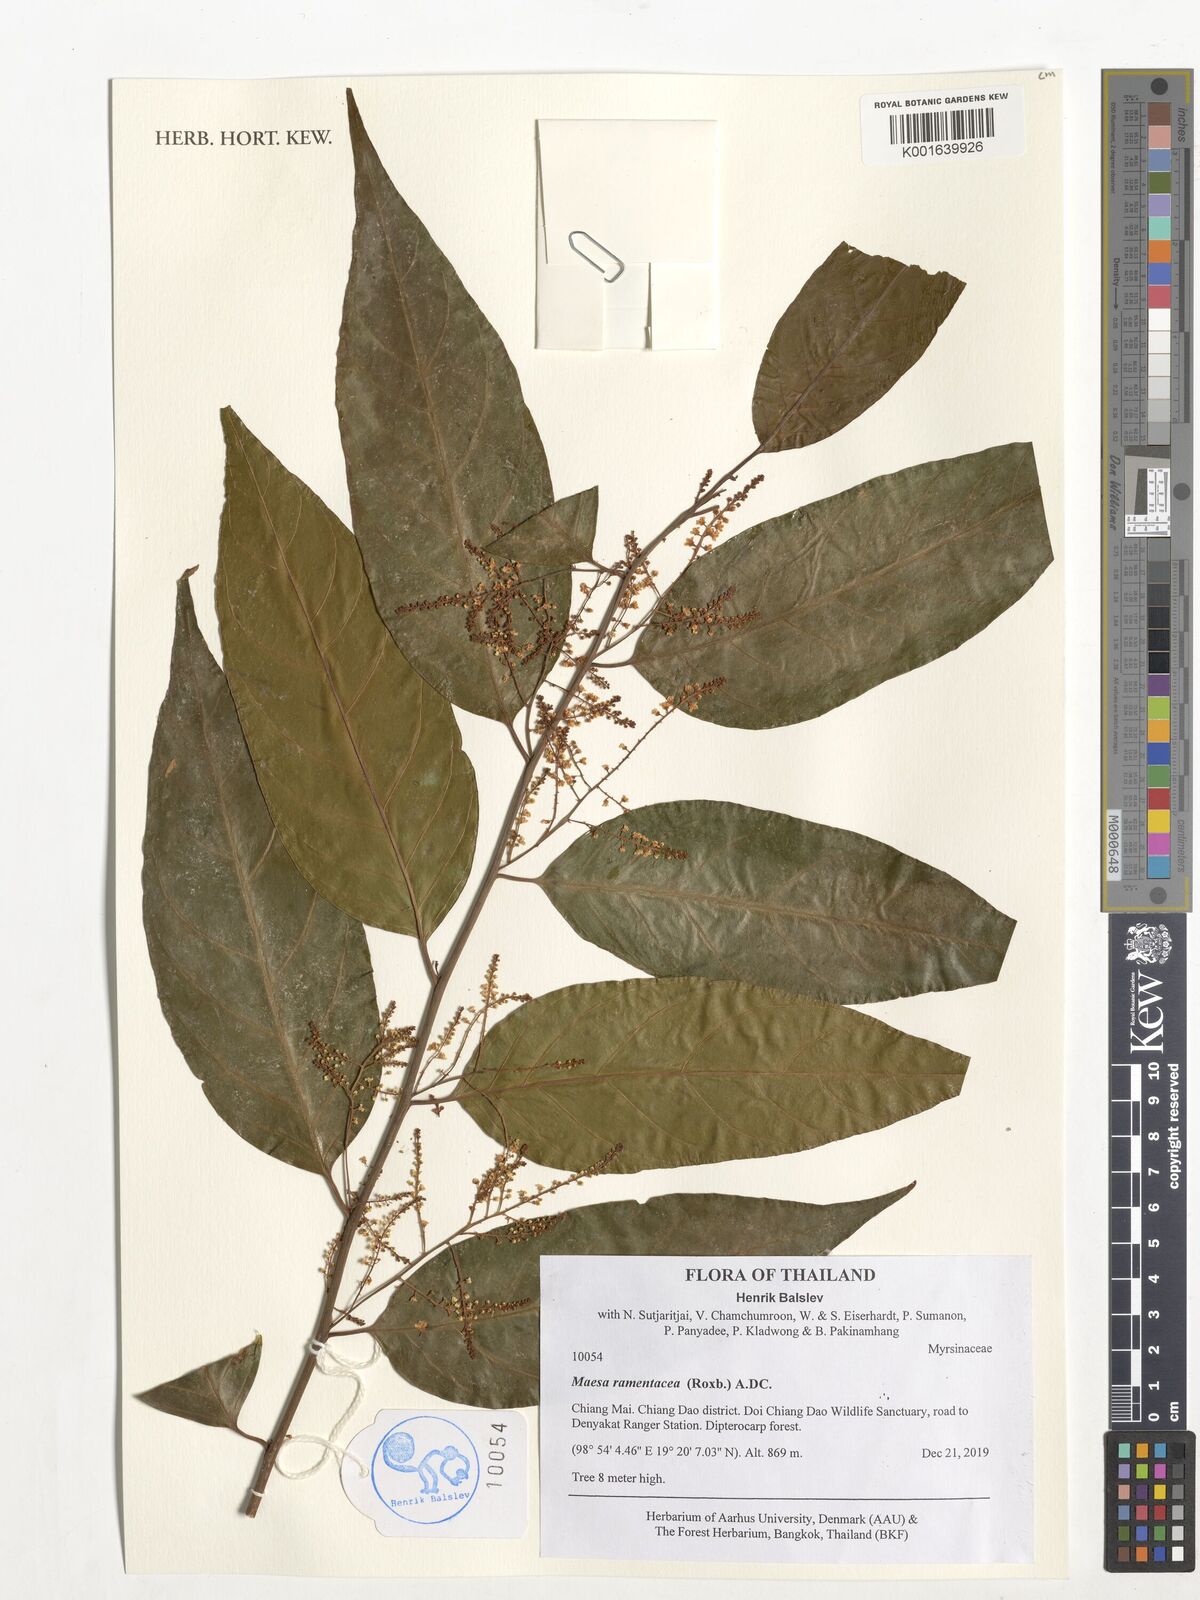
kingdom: Plantae
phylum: Tracheophyta
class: Magnoliopsida
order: Ericales
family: Primulaceae
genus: Maesa
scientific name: Maesa ramentacea
